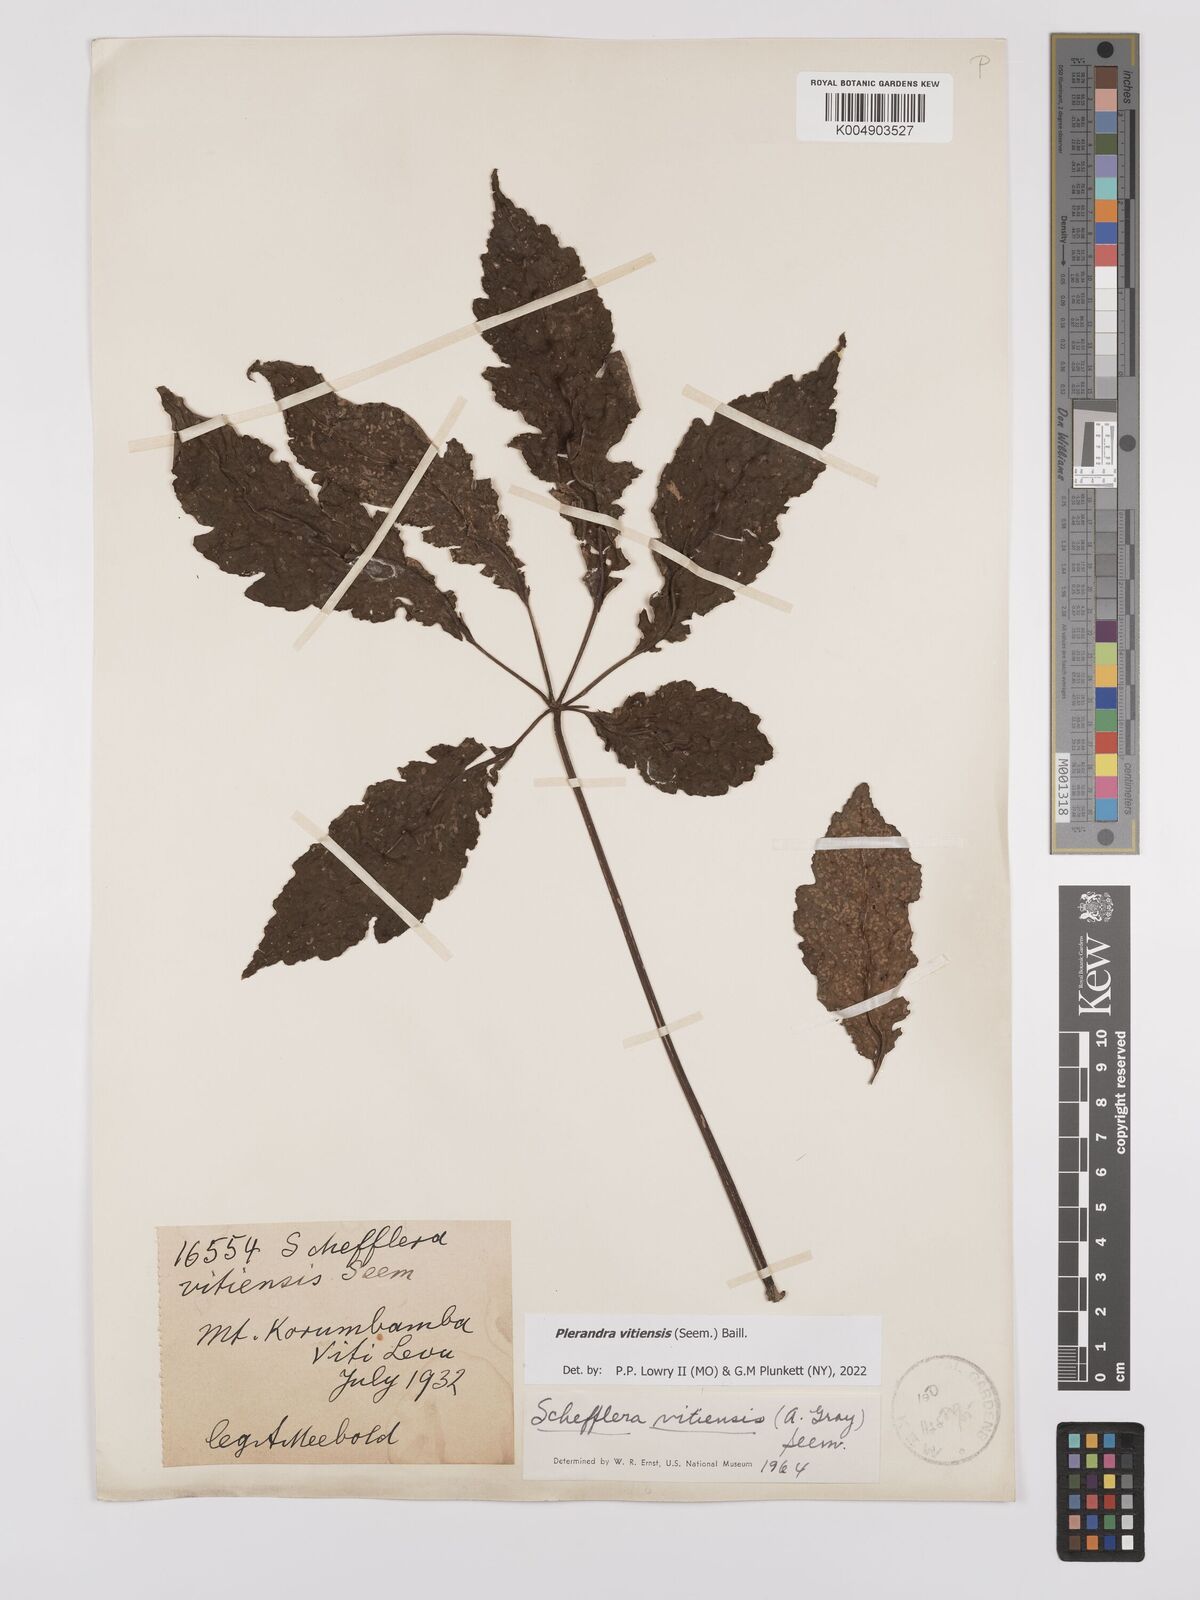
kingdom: Plantae
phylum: Tracheophyta
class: Magnoliopsida
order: Apiales
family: Araliaceae
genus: Schefflera
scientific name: Schefflera vitiensis
